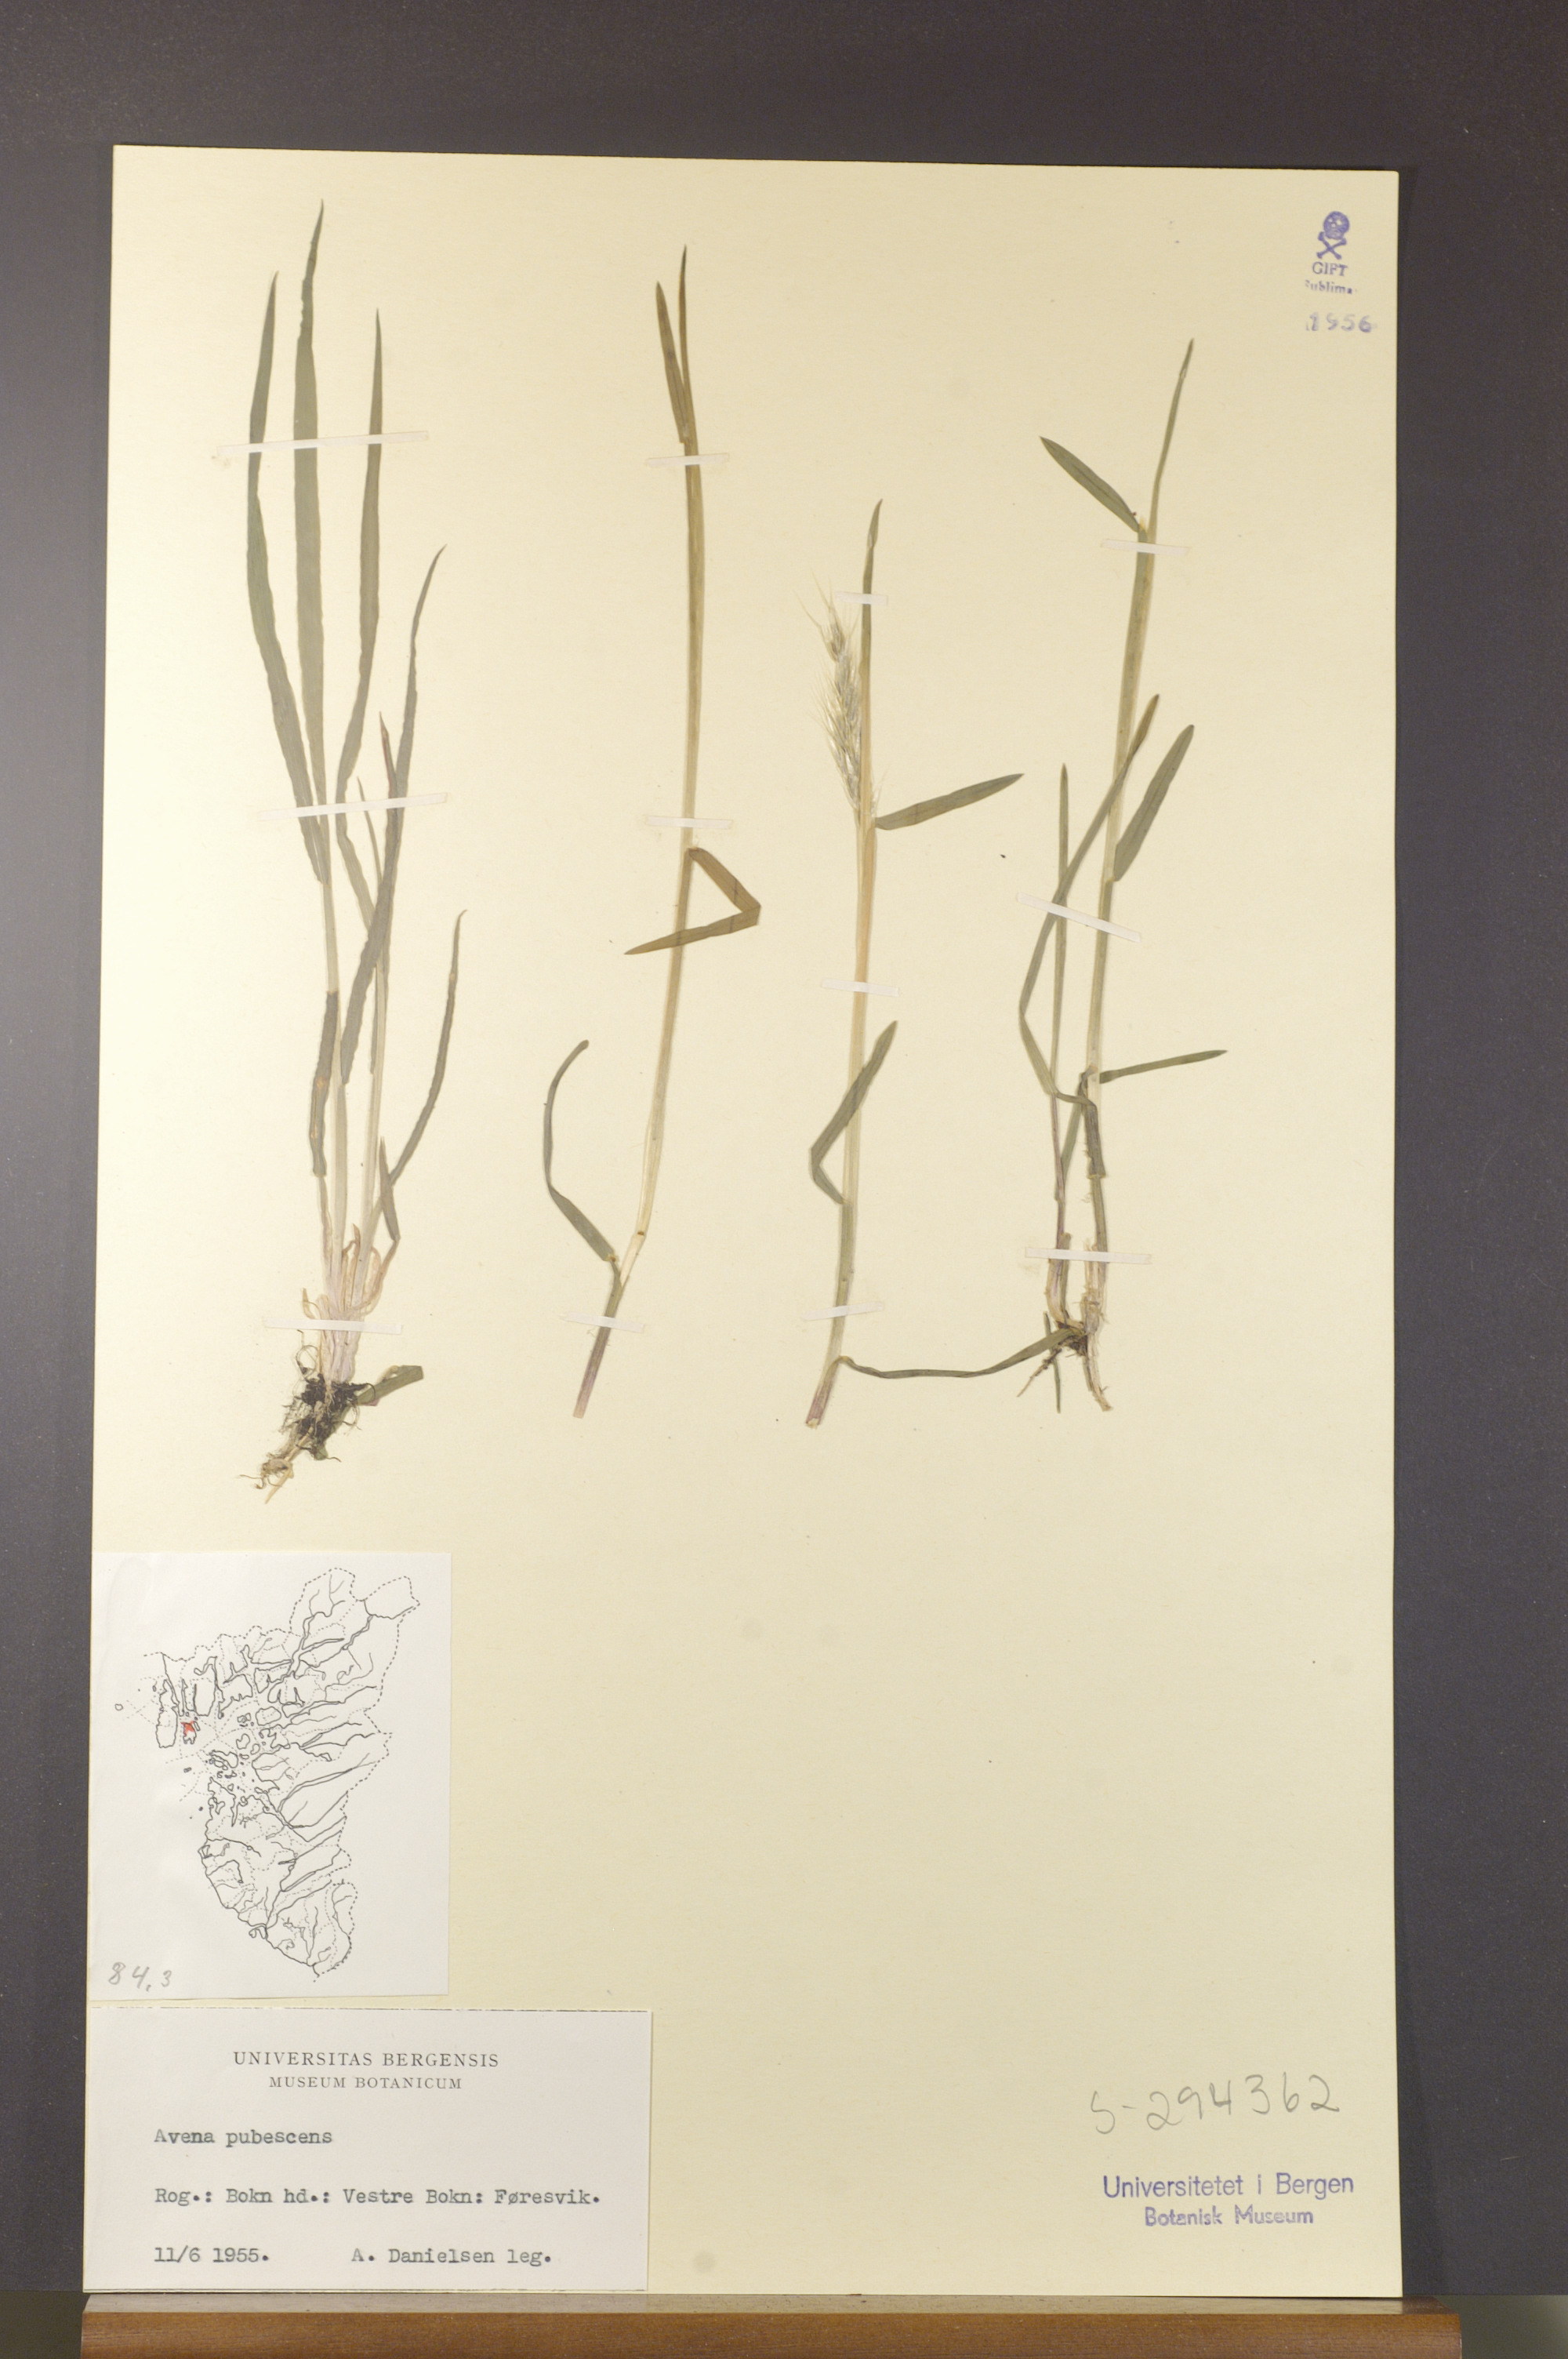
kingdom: Plantae
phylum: Tracheophyta
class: Liliopsida
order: Poales
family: Poaceae
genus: Avenula
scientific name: Avenula pubescens
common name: Downy alpine oatgrass
